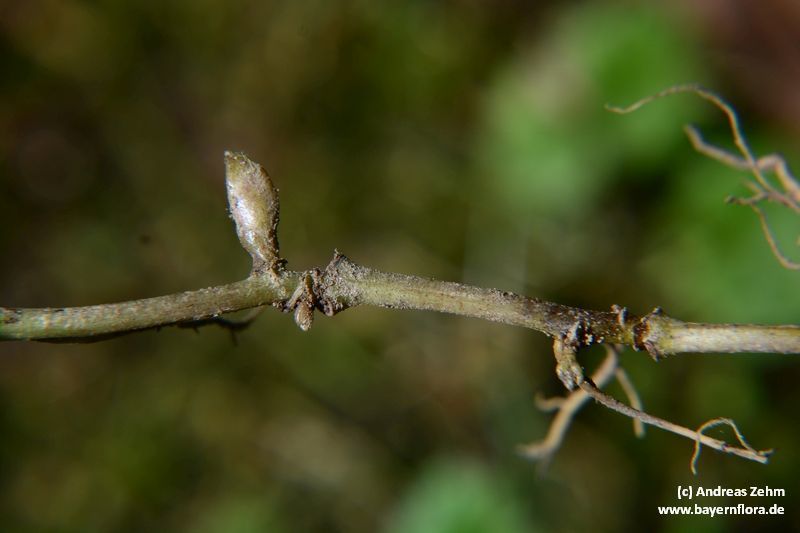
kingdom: Plantae
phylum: Tracheophyta
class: Magnoliopsida
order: Piperales
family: Aristolochiaceae
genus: Asarum
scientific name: Asarum europaeum
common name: Asarabacca
